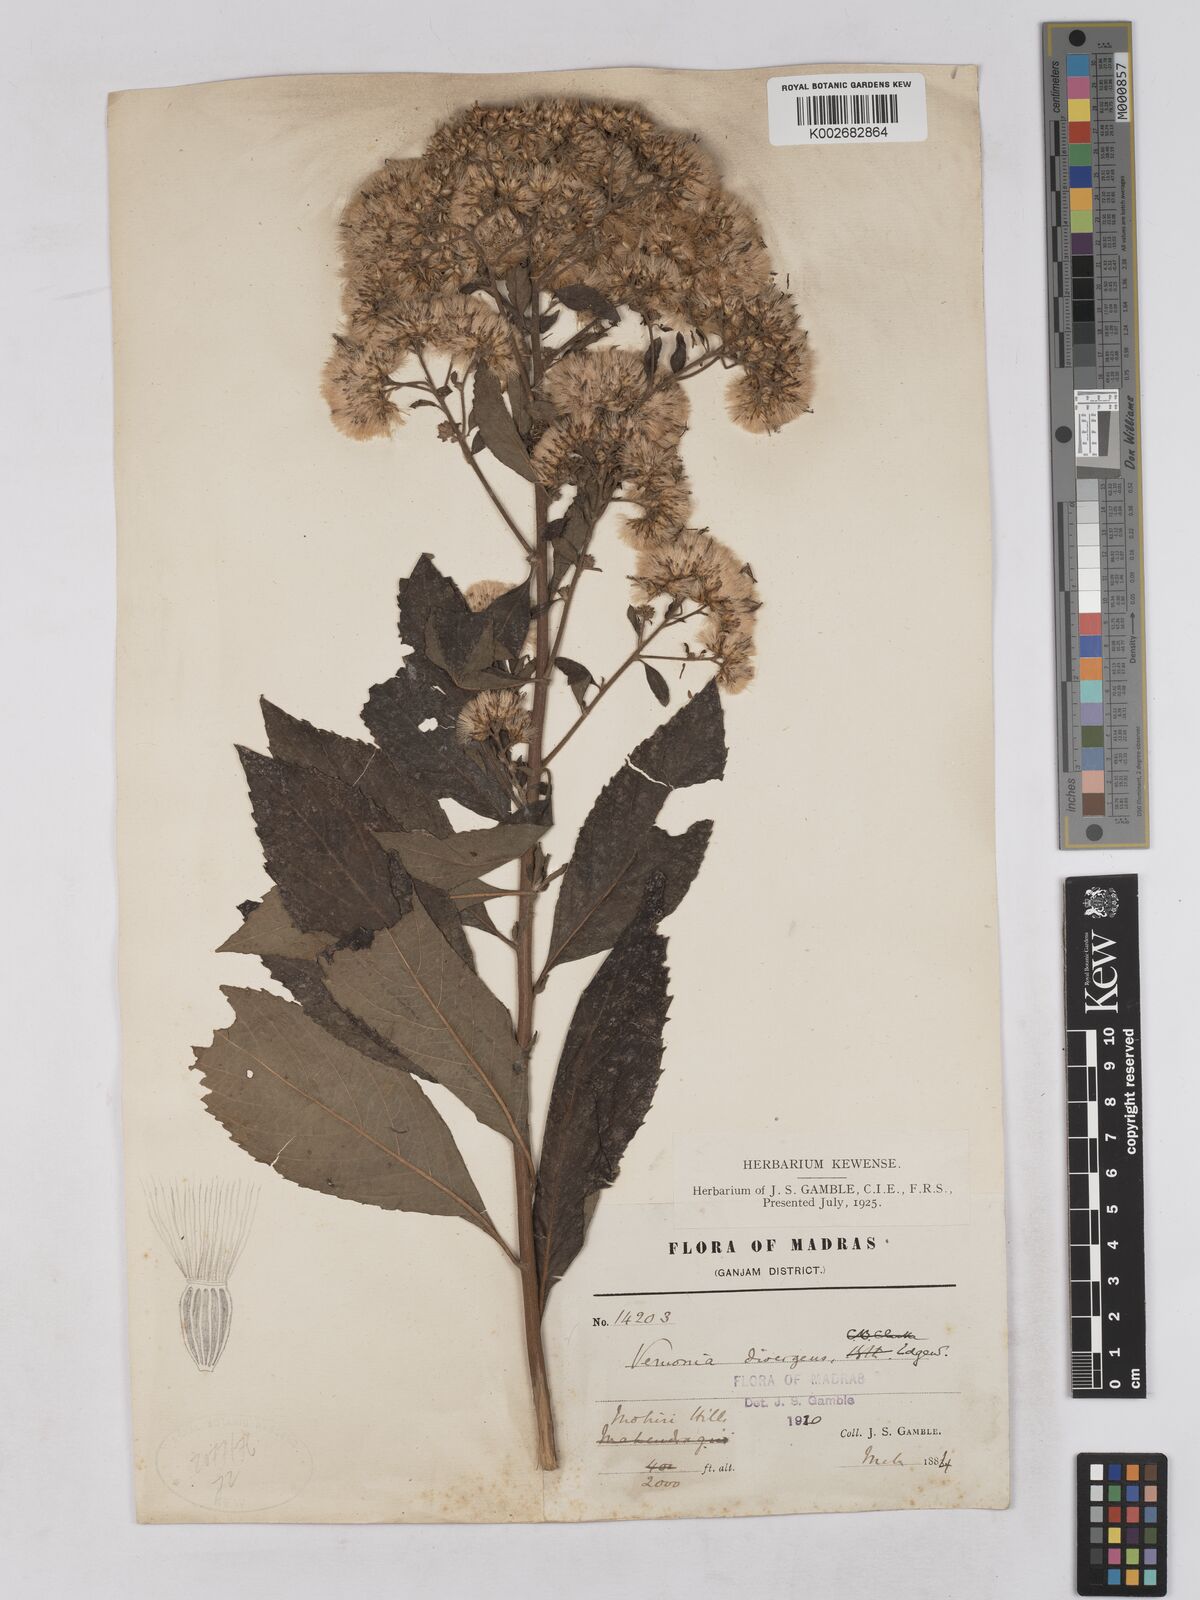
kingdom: Plantae
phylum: Tracheophyta
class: Magnoliopsida
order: Asterales
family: Asteraceae
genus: Acilepis
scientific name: Acilepis divergens
